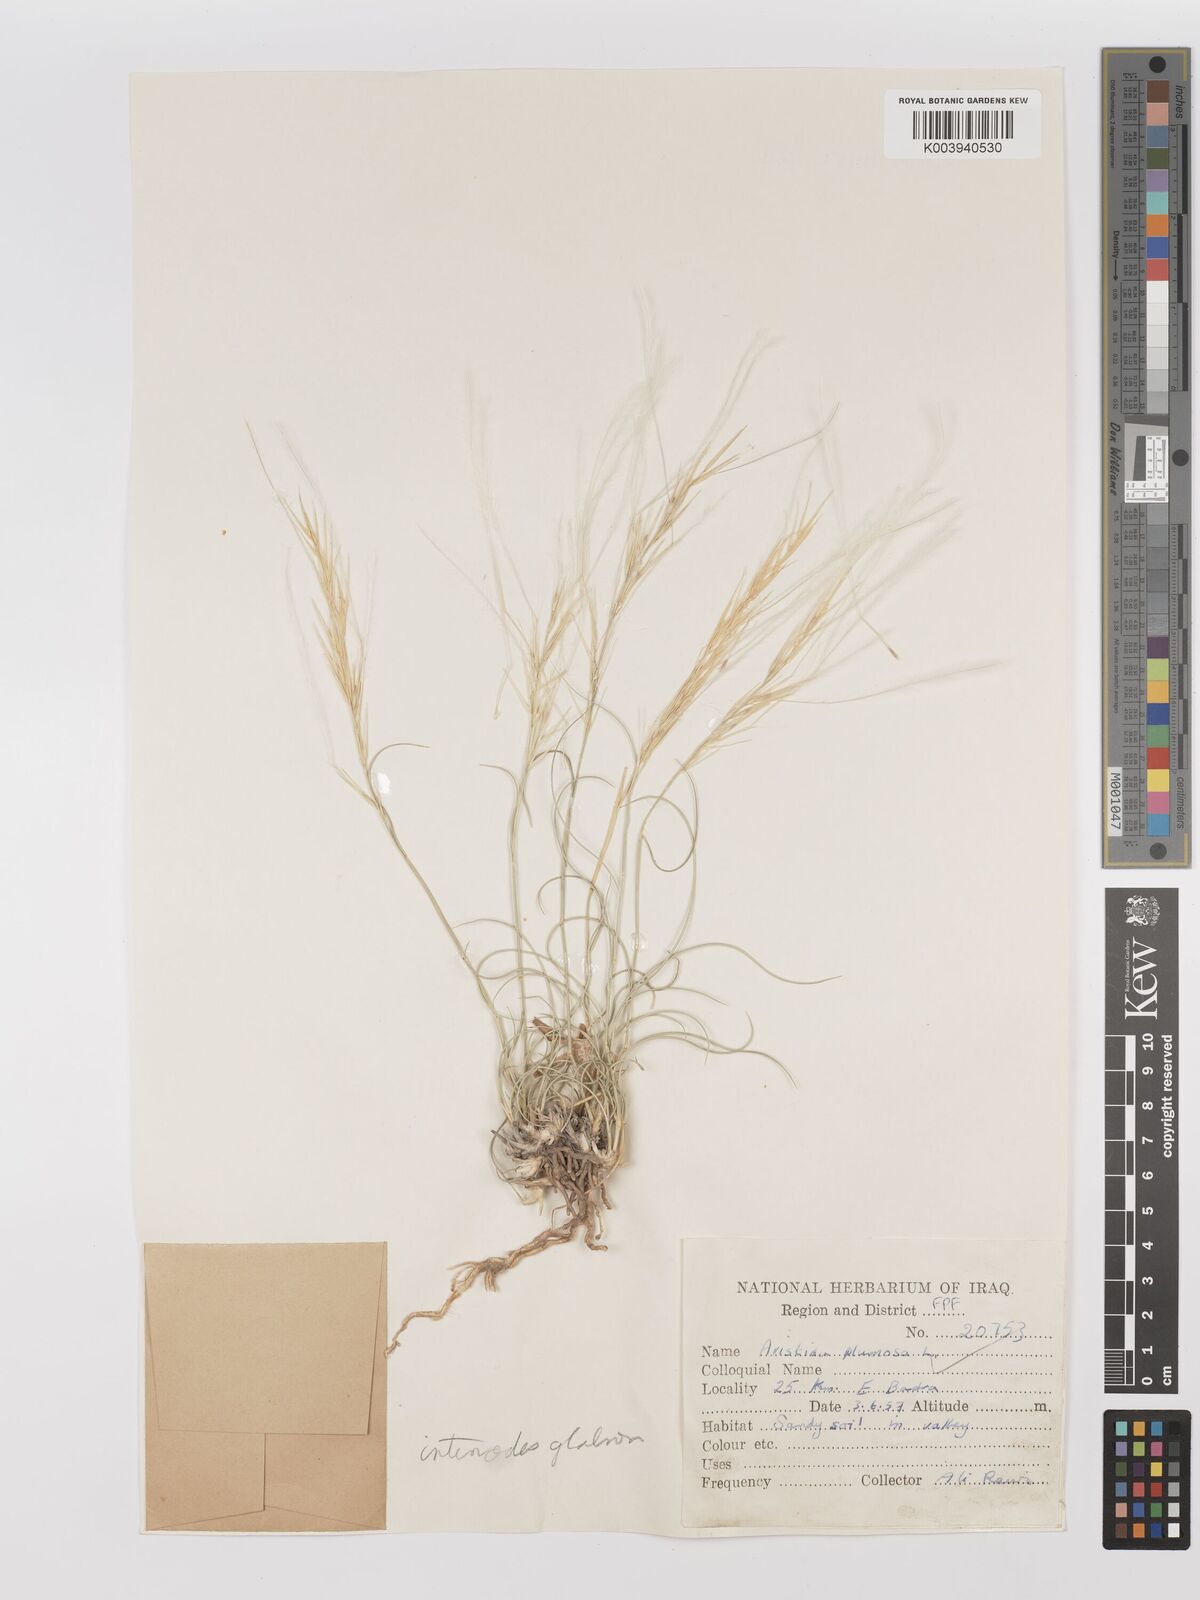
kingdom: Plantae
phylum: Tracheophyta
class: Liliopsida
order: Poales
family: Poaceae
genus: Stipagrostis
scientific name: Stipagrostis plumosa
